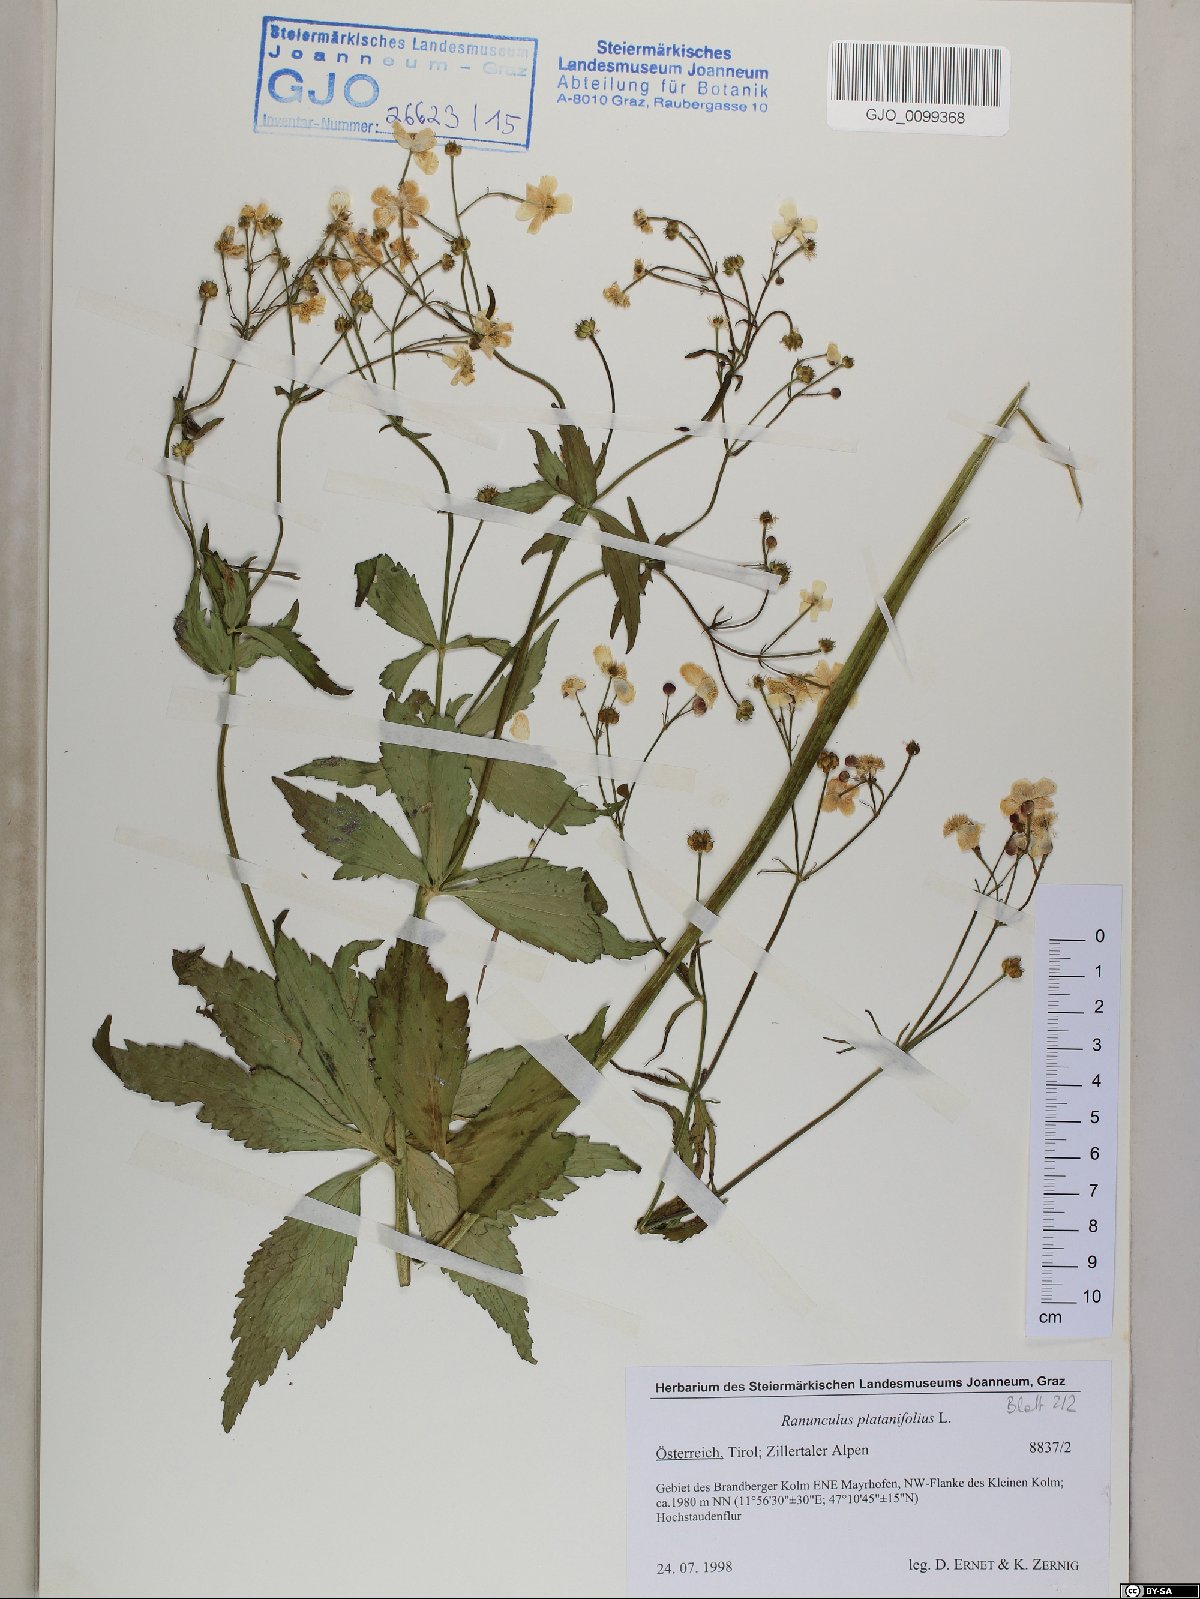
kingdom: Plantae
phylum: Tracheophyta
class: Magnoliopsida
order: Ranunculales
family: Ranunculaceae
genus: Ranunculus
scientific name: Ranunculus platanifolius
